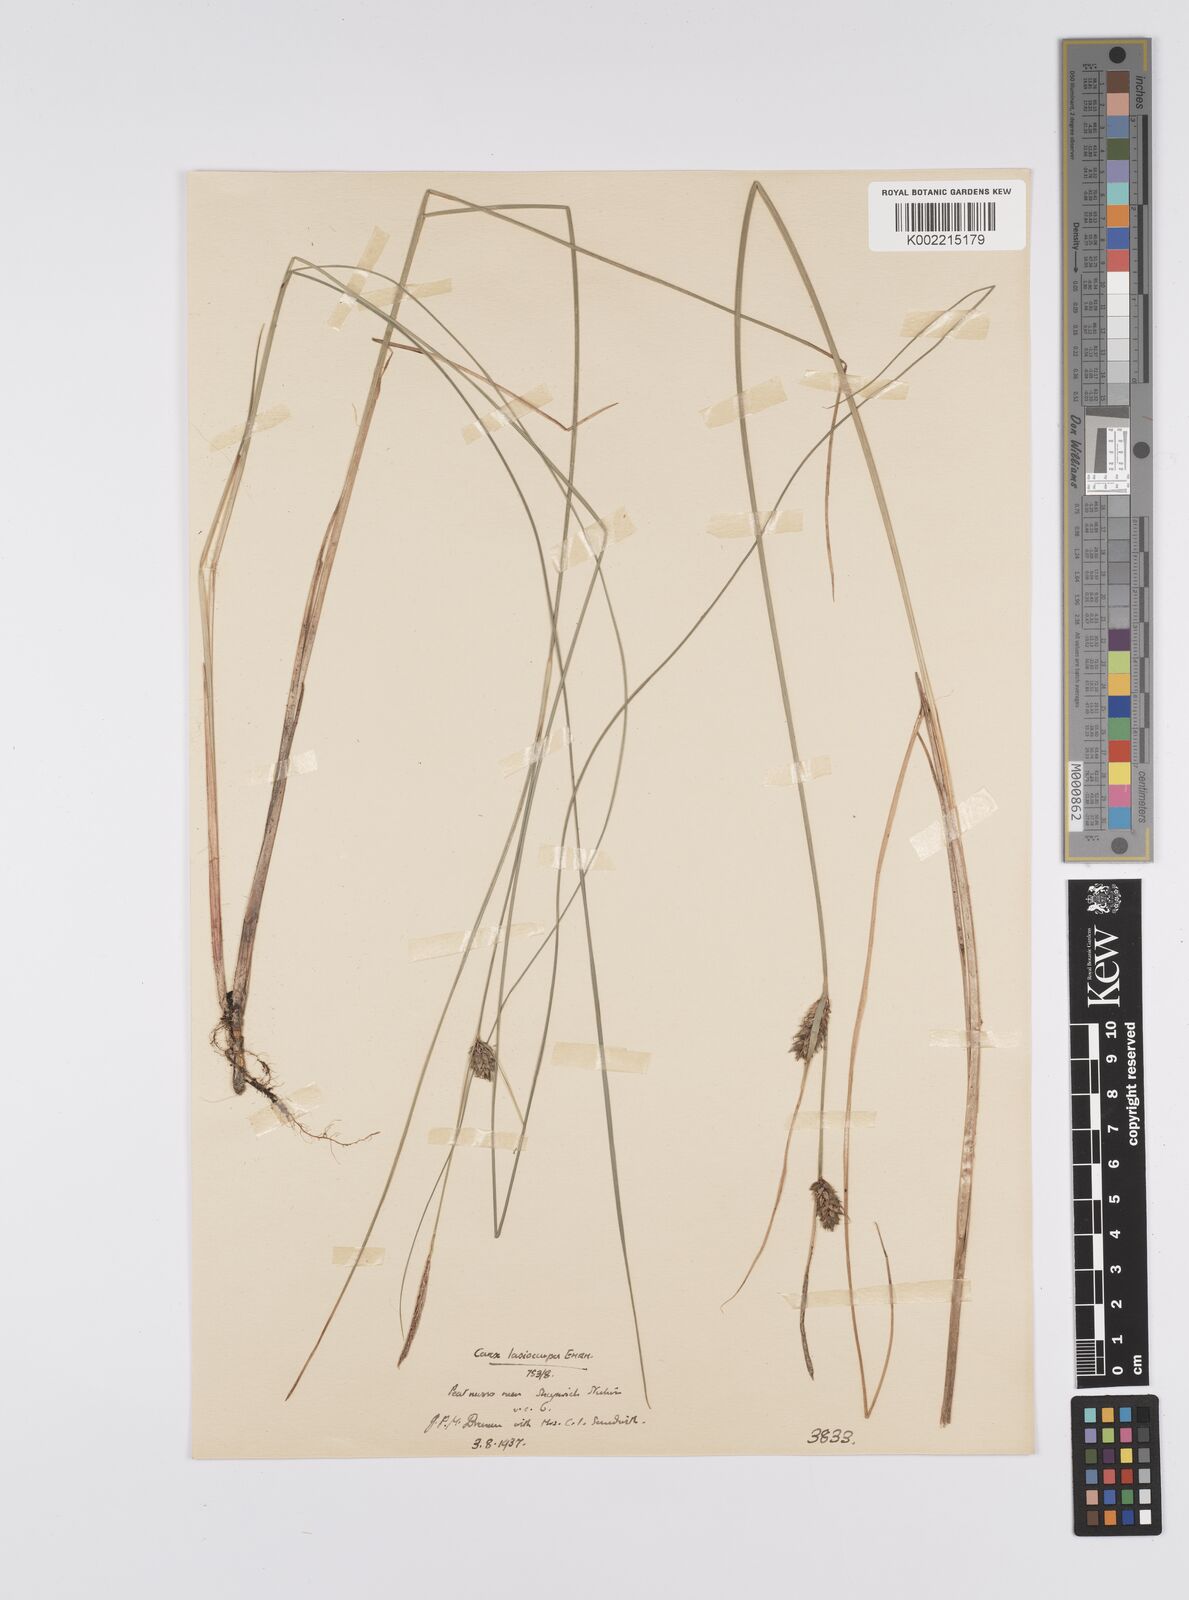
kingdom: Plantae
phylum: Tracheophyta
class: Liliopsida
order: Poales
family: Cyperaceae
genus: Carex
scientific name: Carex lasiocarpa
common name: Slender sedge
